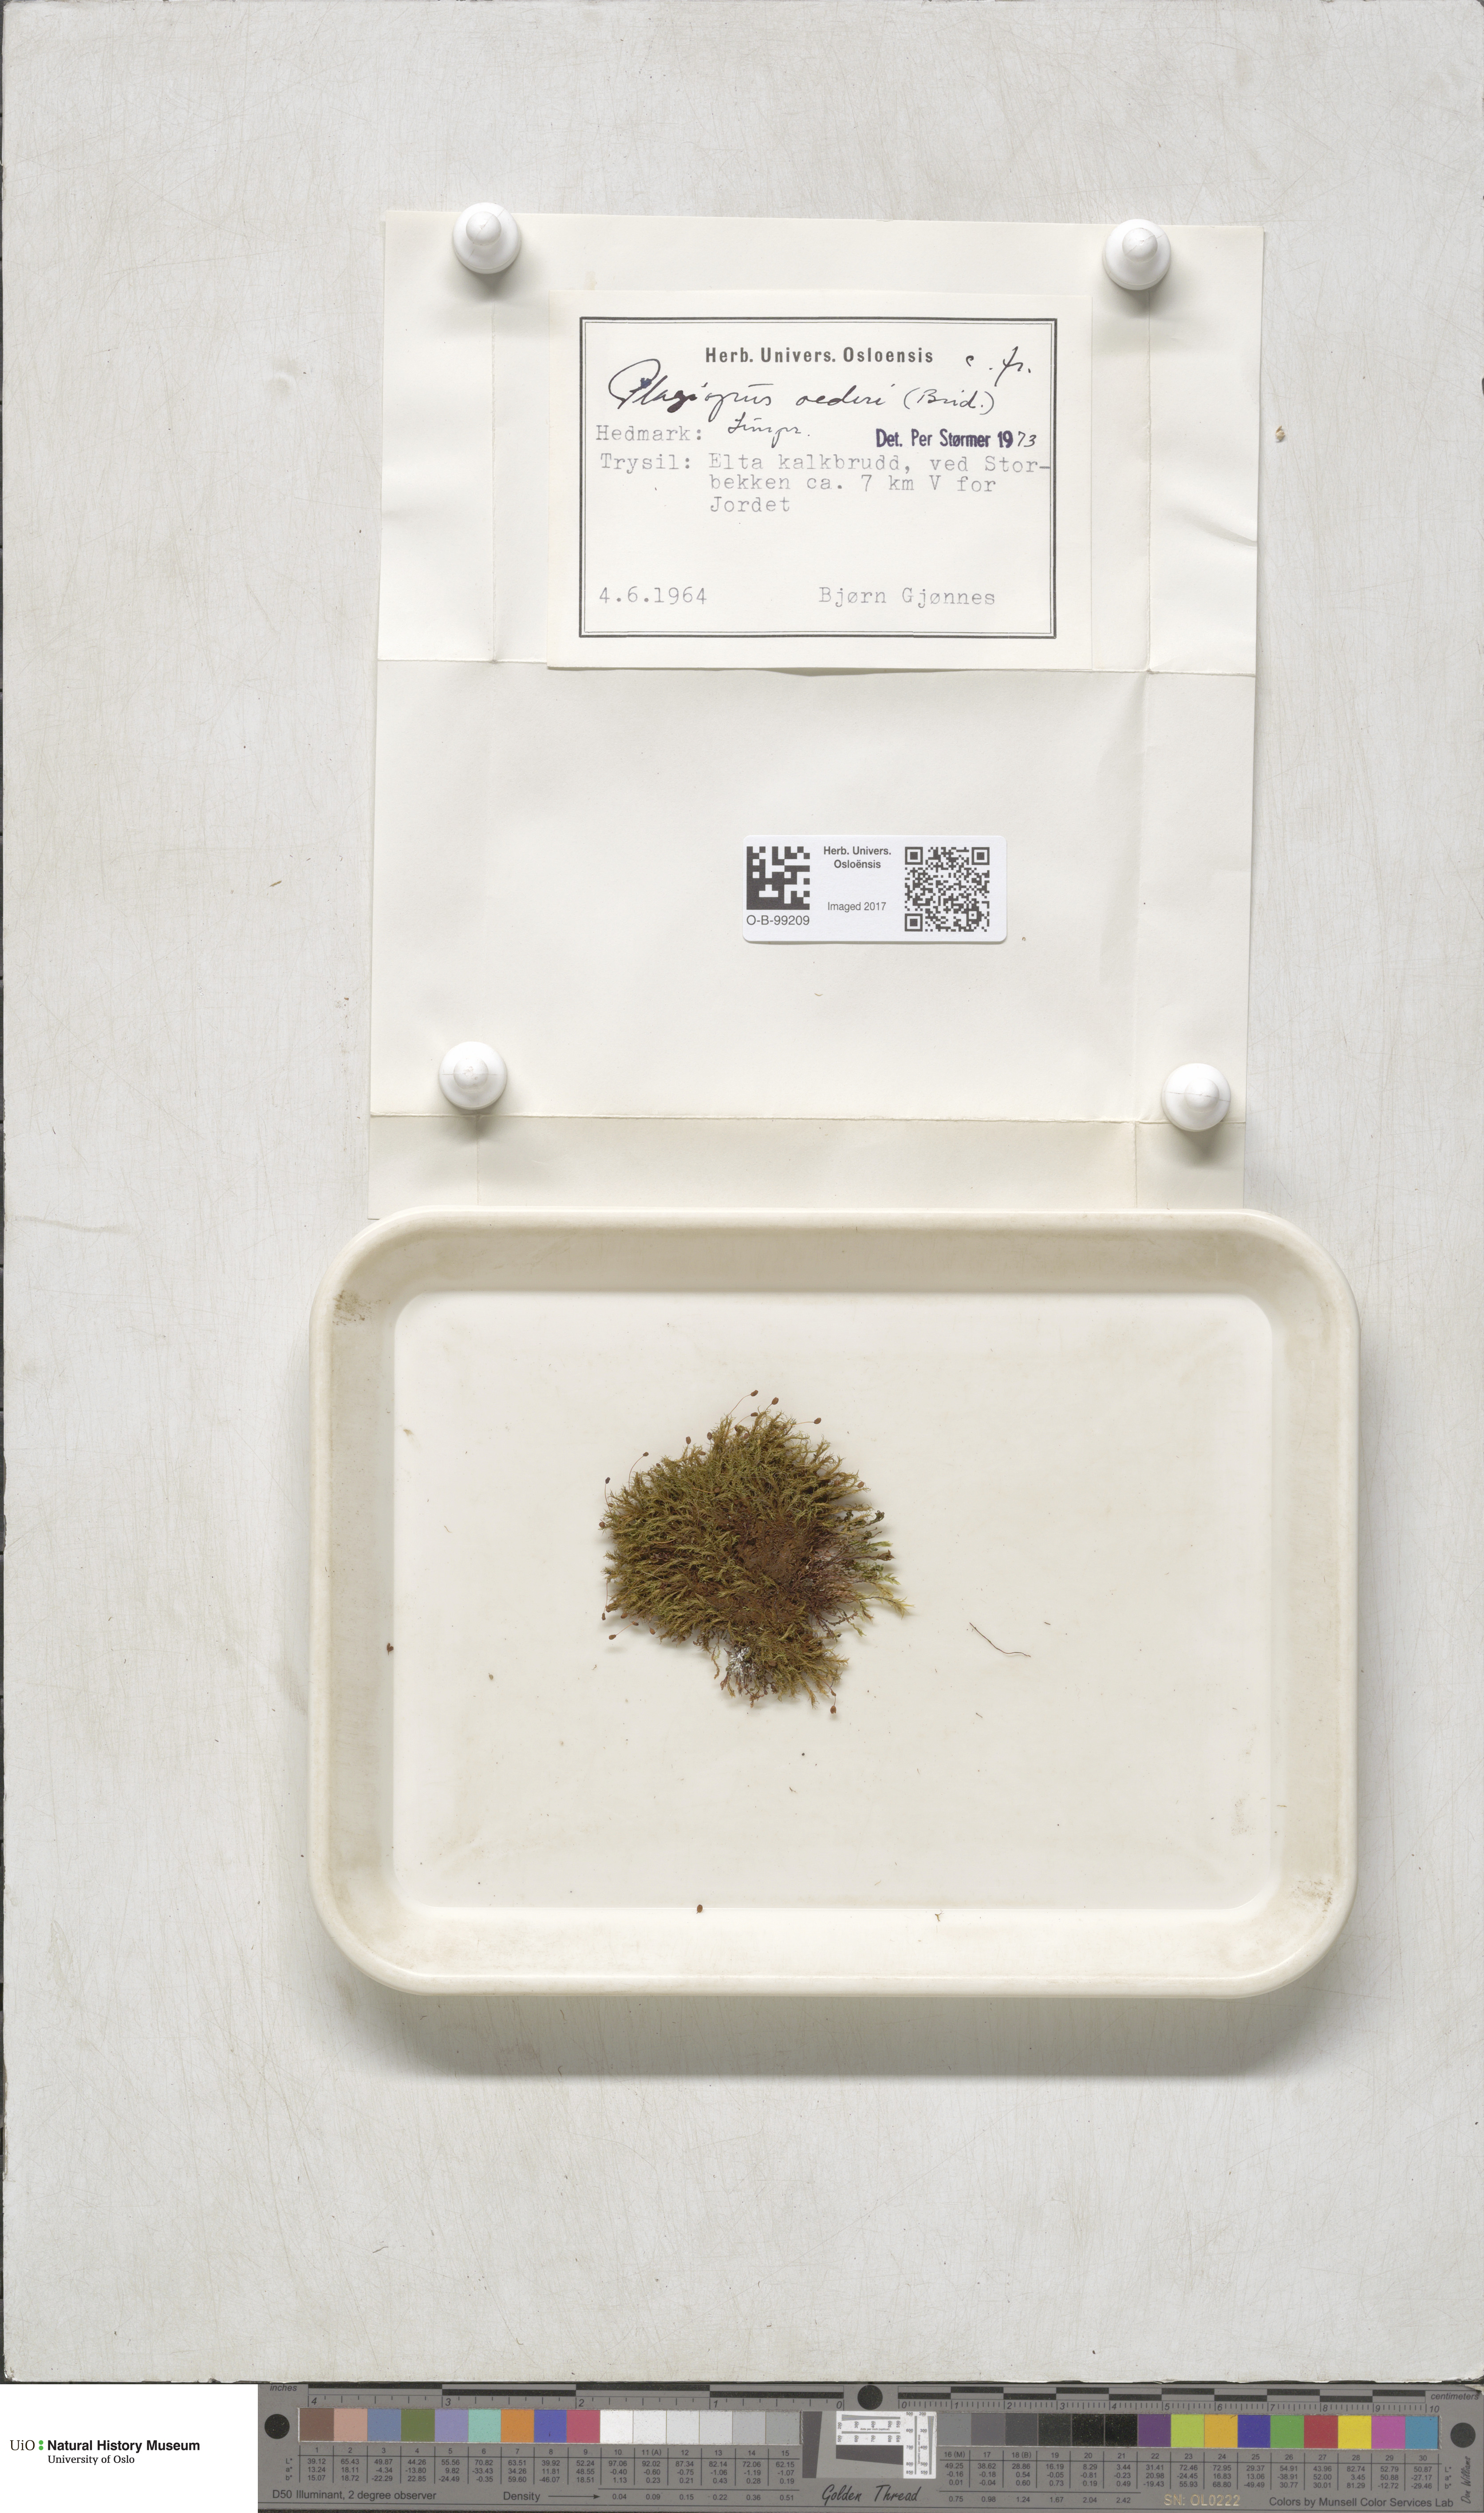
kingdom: Plantae
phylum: Bryophyta
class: Bryopsida
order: Bartramiales
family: Bartramiaceae
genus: Plagiopus
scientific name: Plagiopus oederianus
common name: Oeder's apple moss
